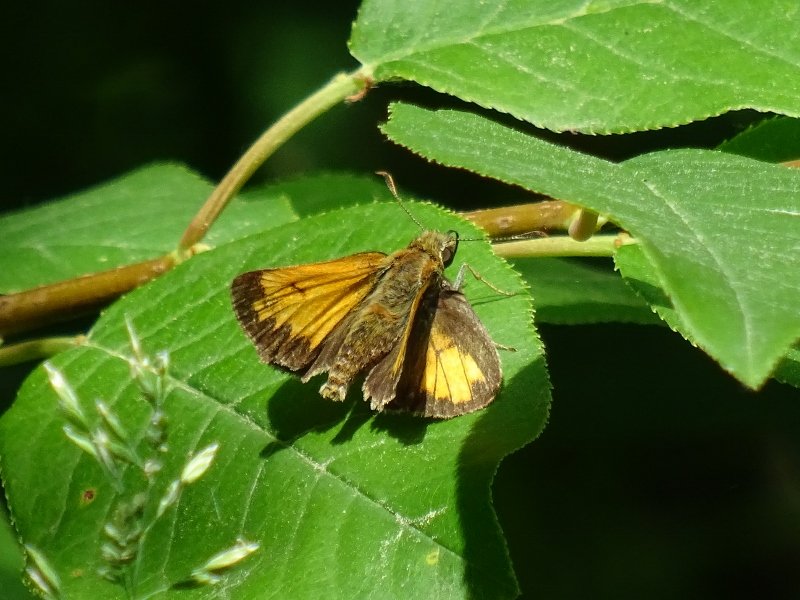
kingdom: Animalia
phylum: Arthropoda
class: Insecta
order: Lepidoptera
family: Hesperiidae
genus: Lon
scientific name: Lon hobomok
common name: Hobomok Skipper
